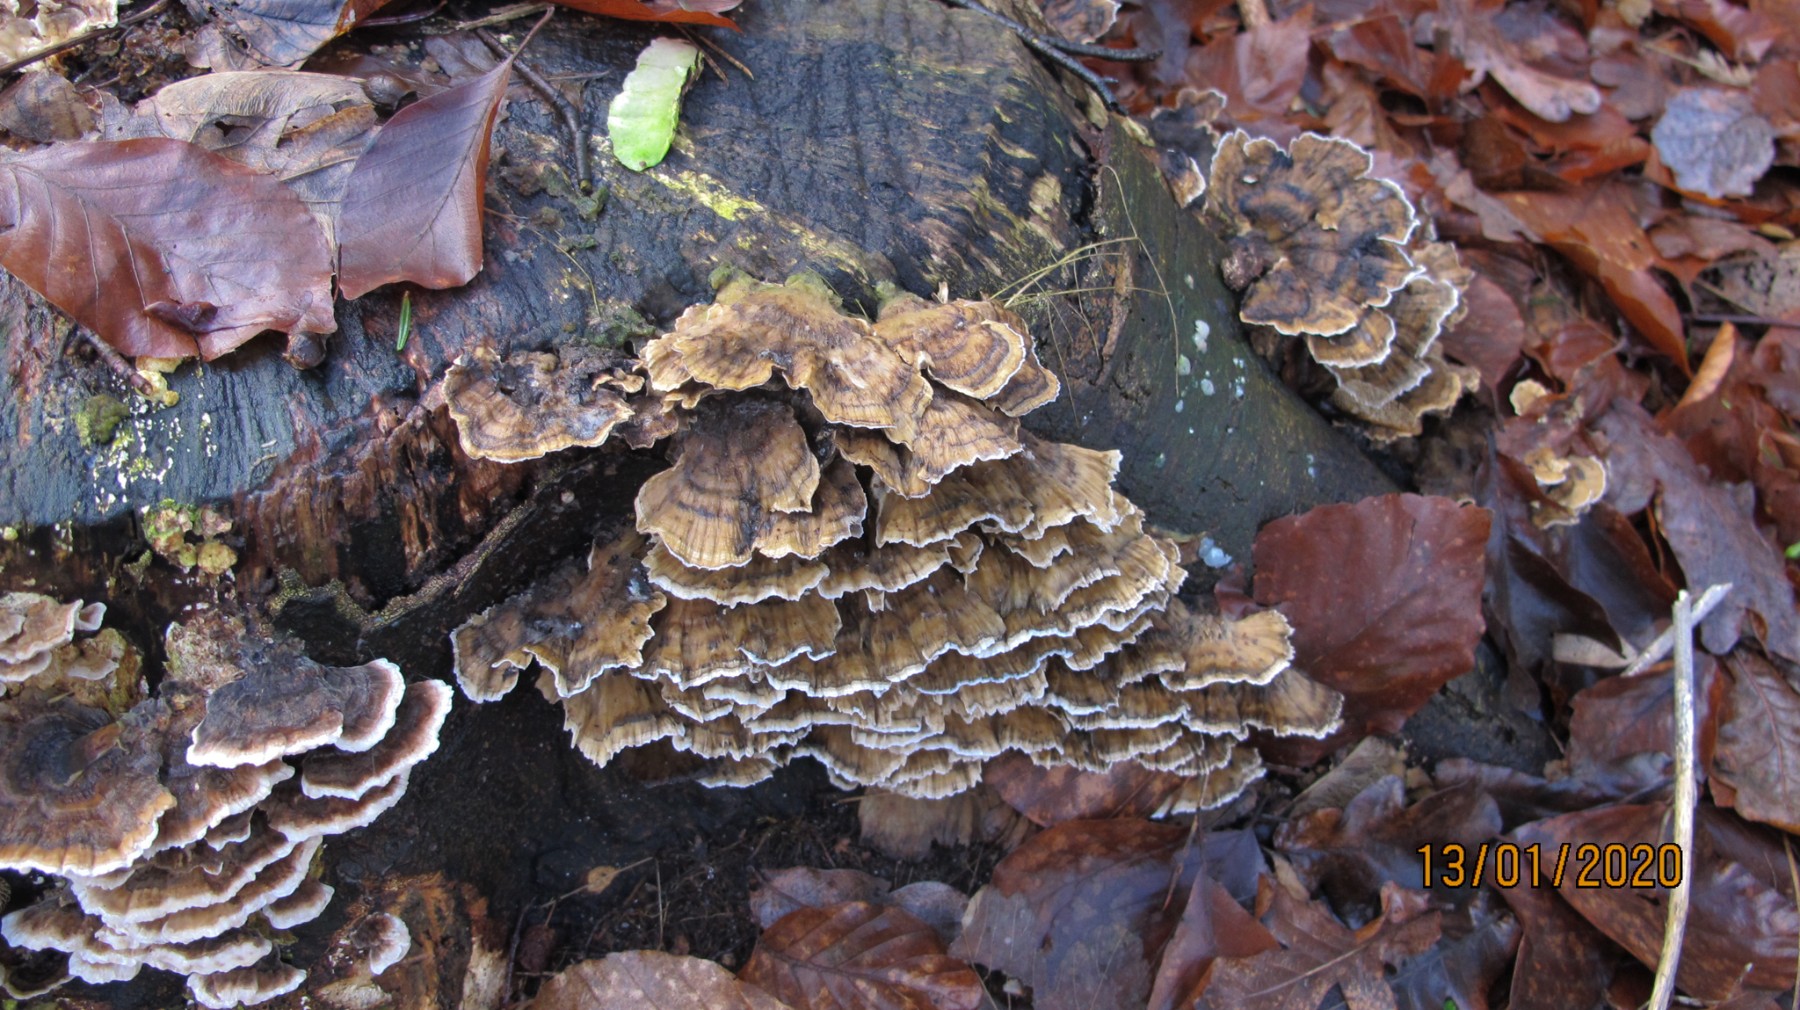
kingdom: Fungi
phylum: Basidiomycota
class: Agaricomycetes
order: Polyporales
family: Polyporaceae
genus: Trametes
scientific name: Trametes versicolor
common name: broget læderporesvamp
